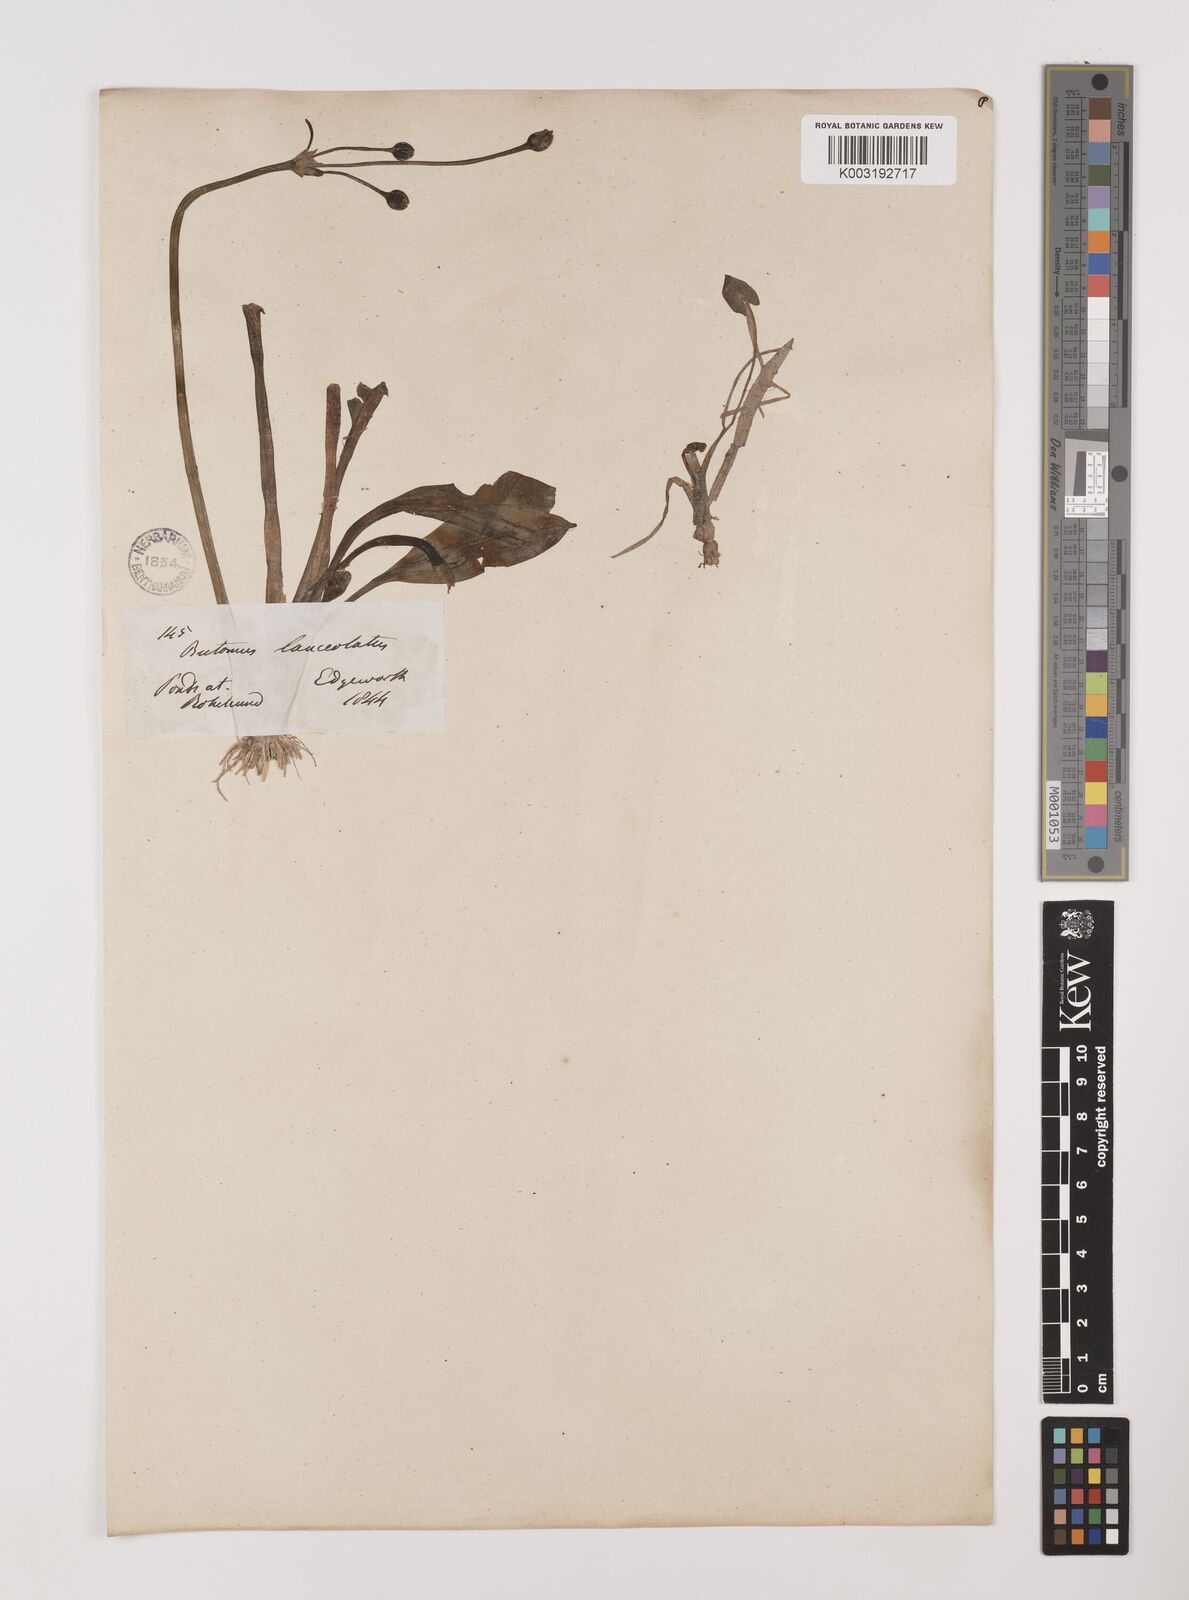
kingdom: Plantae
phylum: Tracheophyta
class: Liliopsida
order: Alismatales
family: Alismataceae
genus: Butomopsis
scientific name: Butomopsis latifolia
